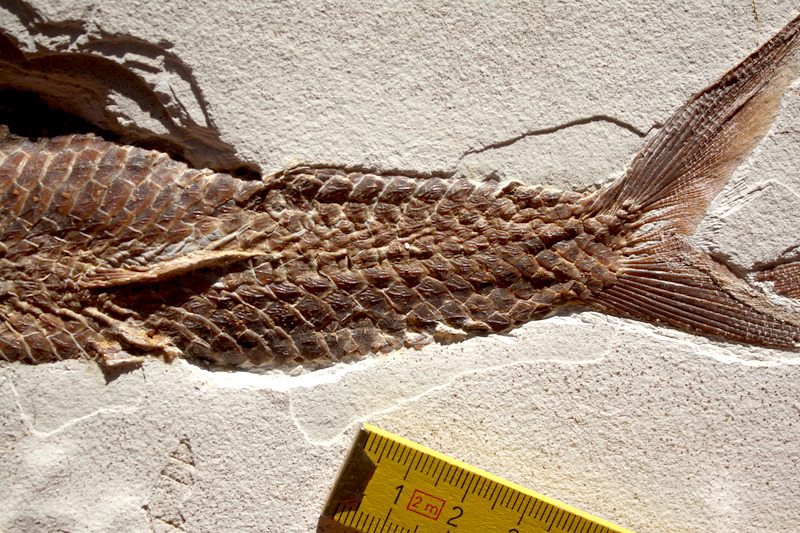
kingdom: Animalia
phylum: Chordata
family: Aspidorhynchidae
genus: Aspidorhynchus
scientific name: Aspidorhynchus sanzenbacheri
